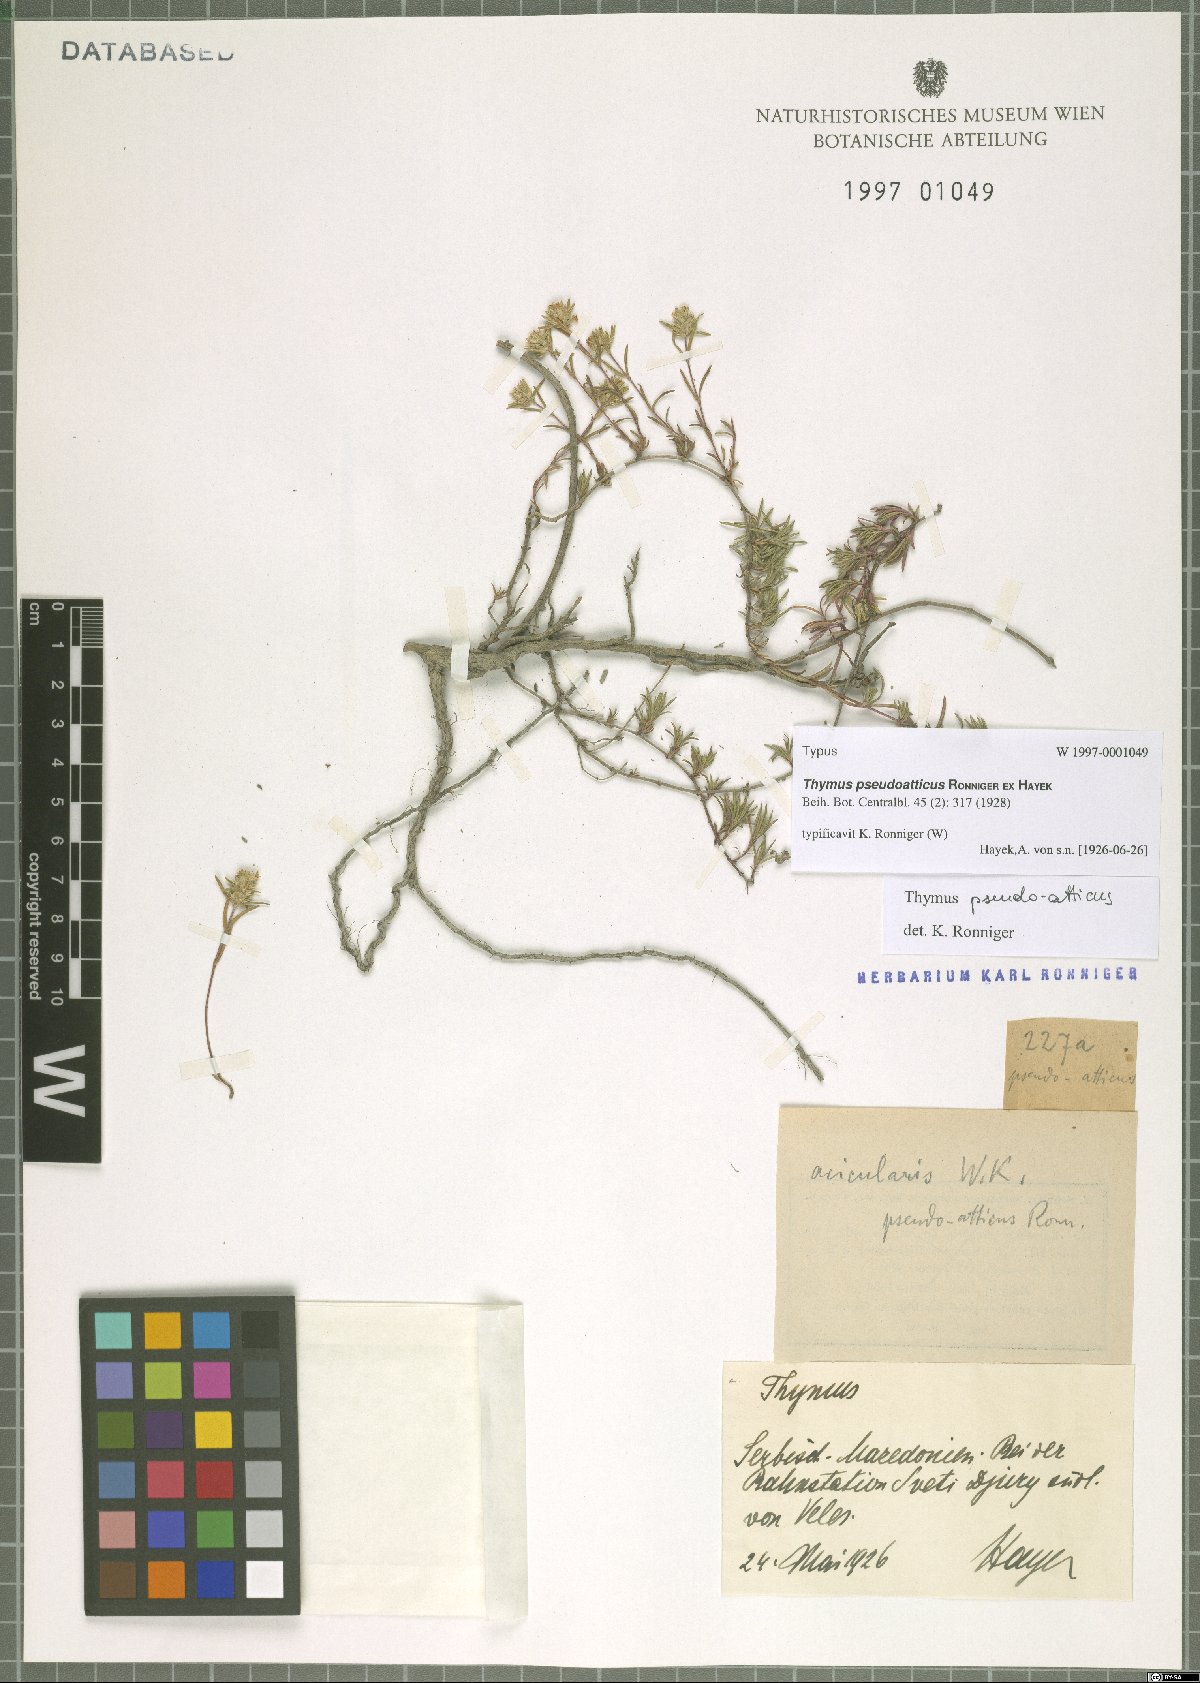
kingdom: Plantae
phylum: Tracheophyta
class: Magnoliopsida
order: Lamiales
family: Lamiaceae
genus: Thymus
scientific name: Thymus striatus
